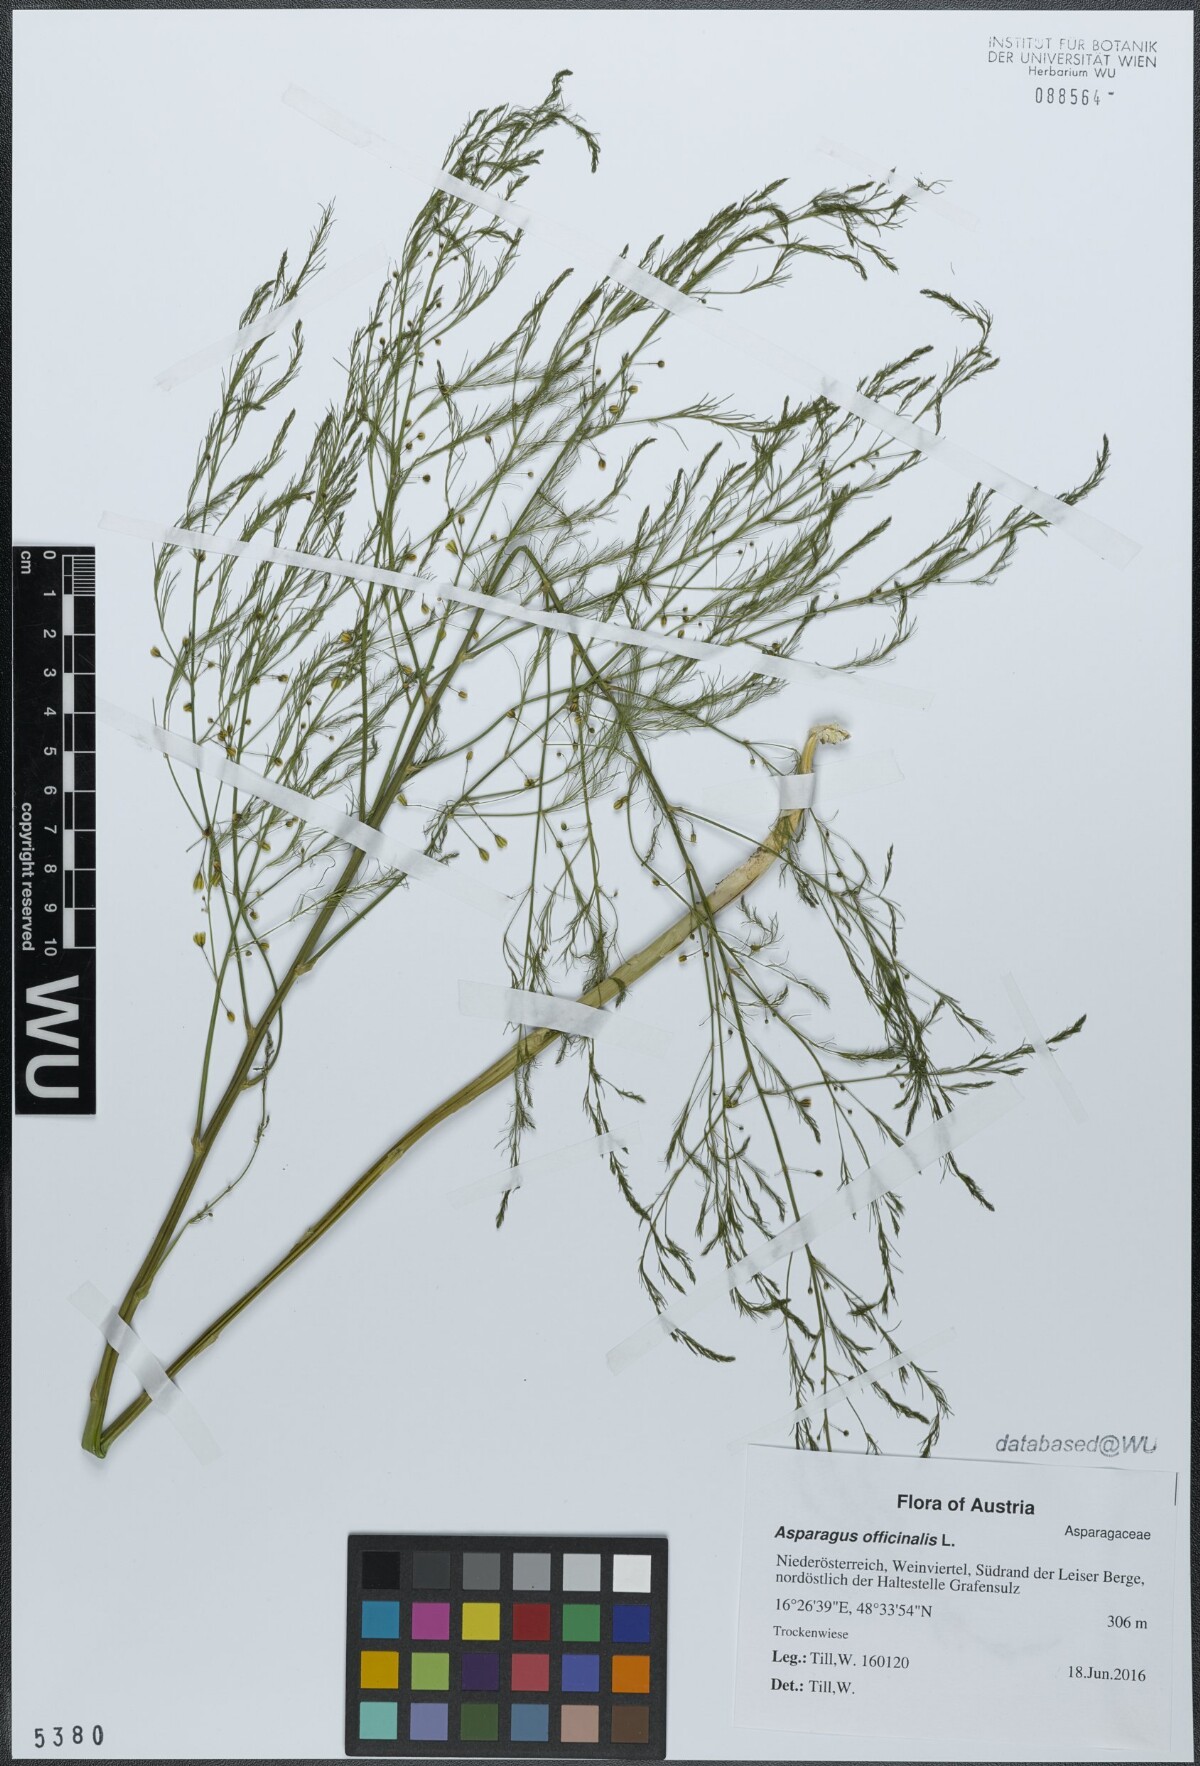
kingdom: Plantae
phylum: Tracheophyta
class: Liliopsida
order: Asparagales
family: Asparagaceae
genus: Asparagus
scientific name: Asparagus officinalis
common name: Garden asparagus
